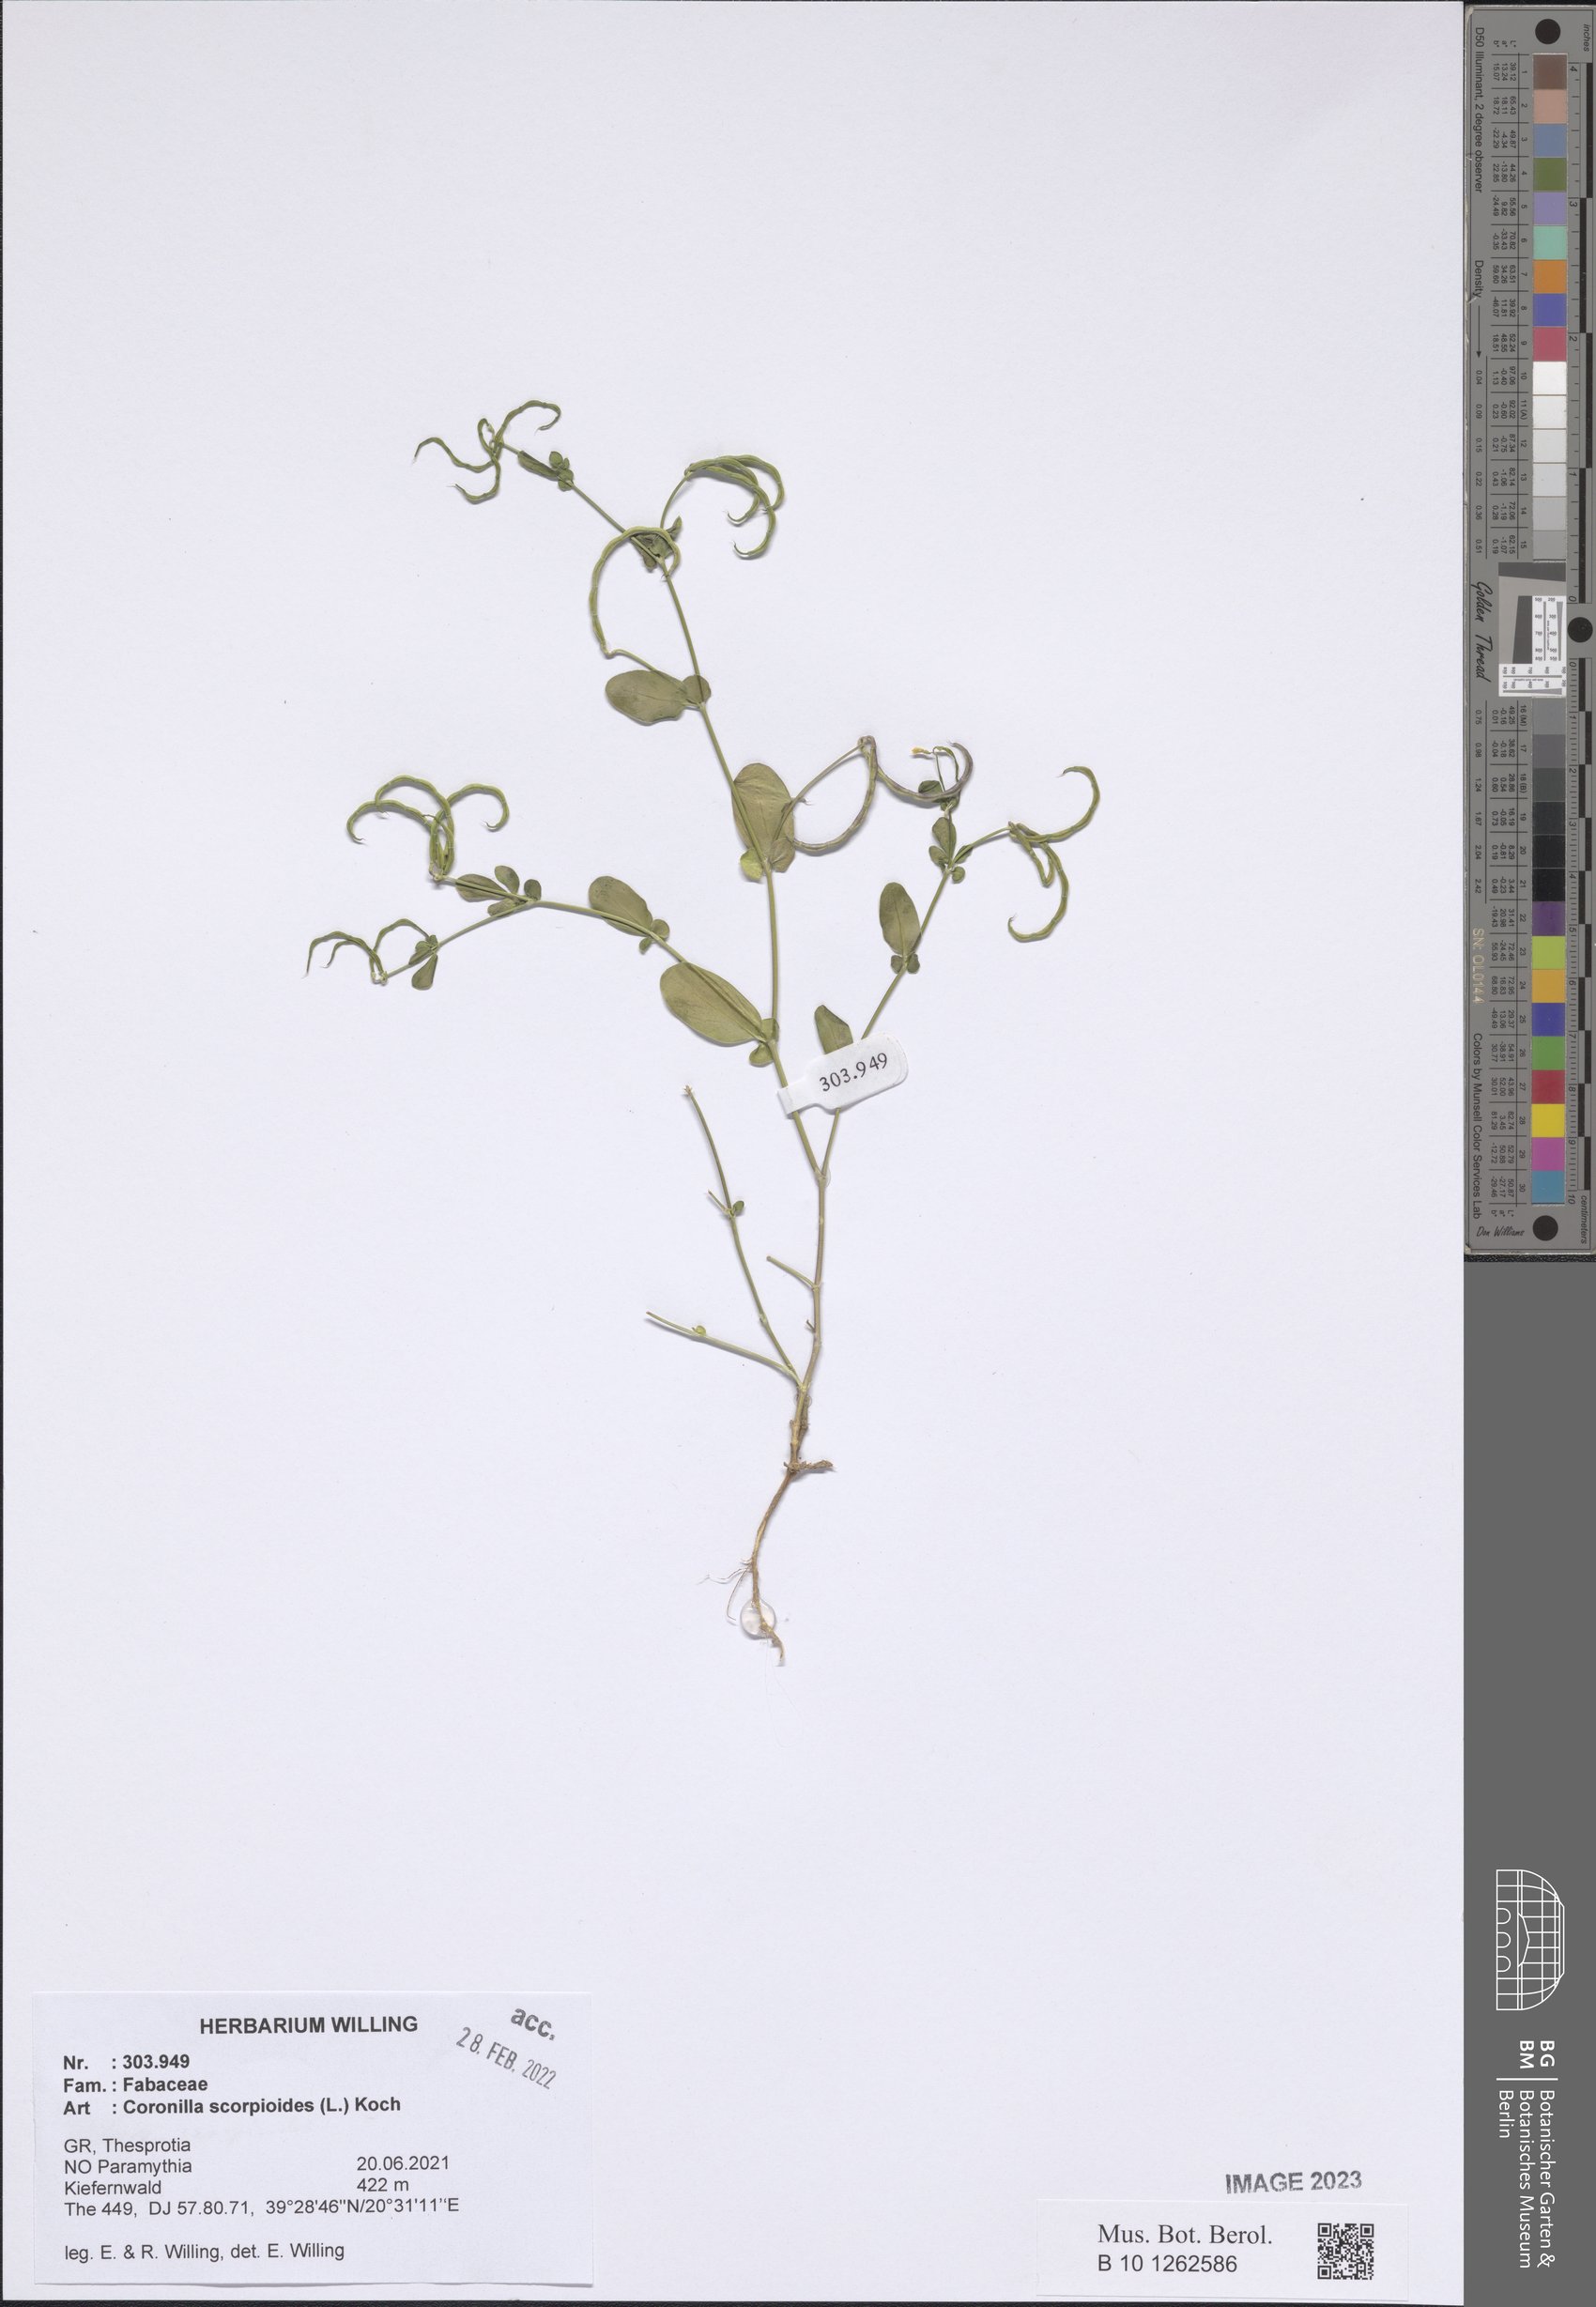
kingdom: Plantae
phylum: Tracheophyta
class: Magnoliopsida
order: Fabales
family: Fabaceae
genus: Coronilla
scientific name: Coronilla scorpioides
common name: Annual scorpion-vetch
